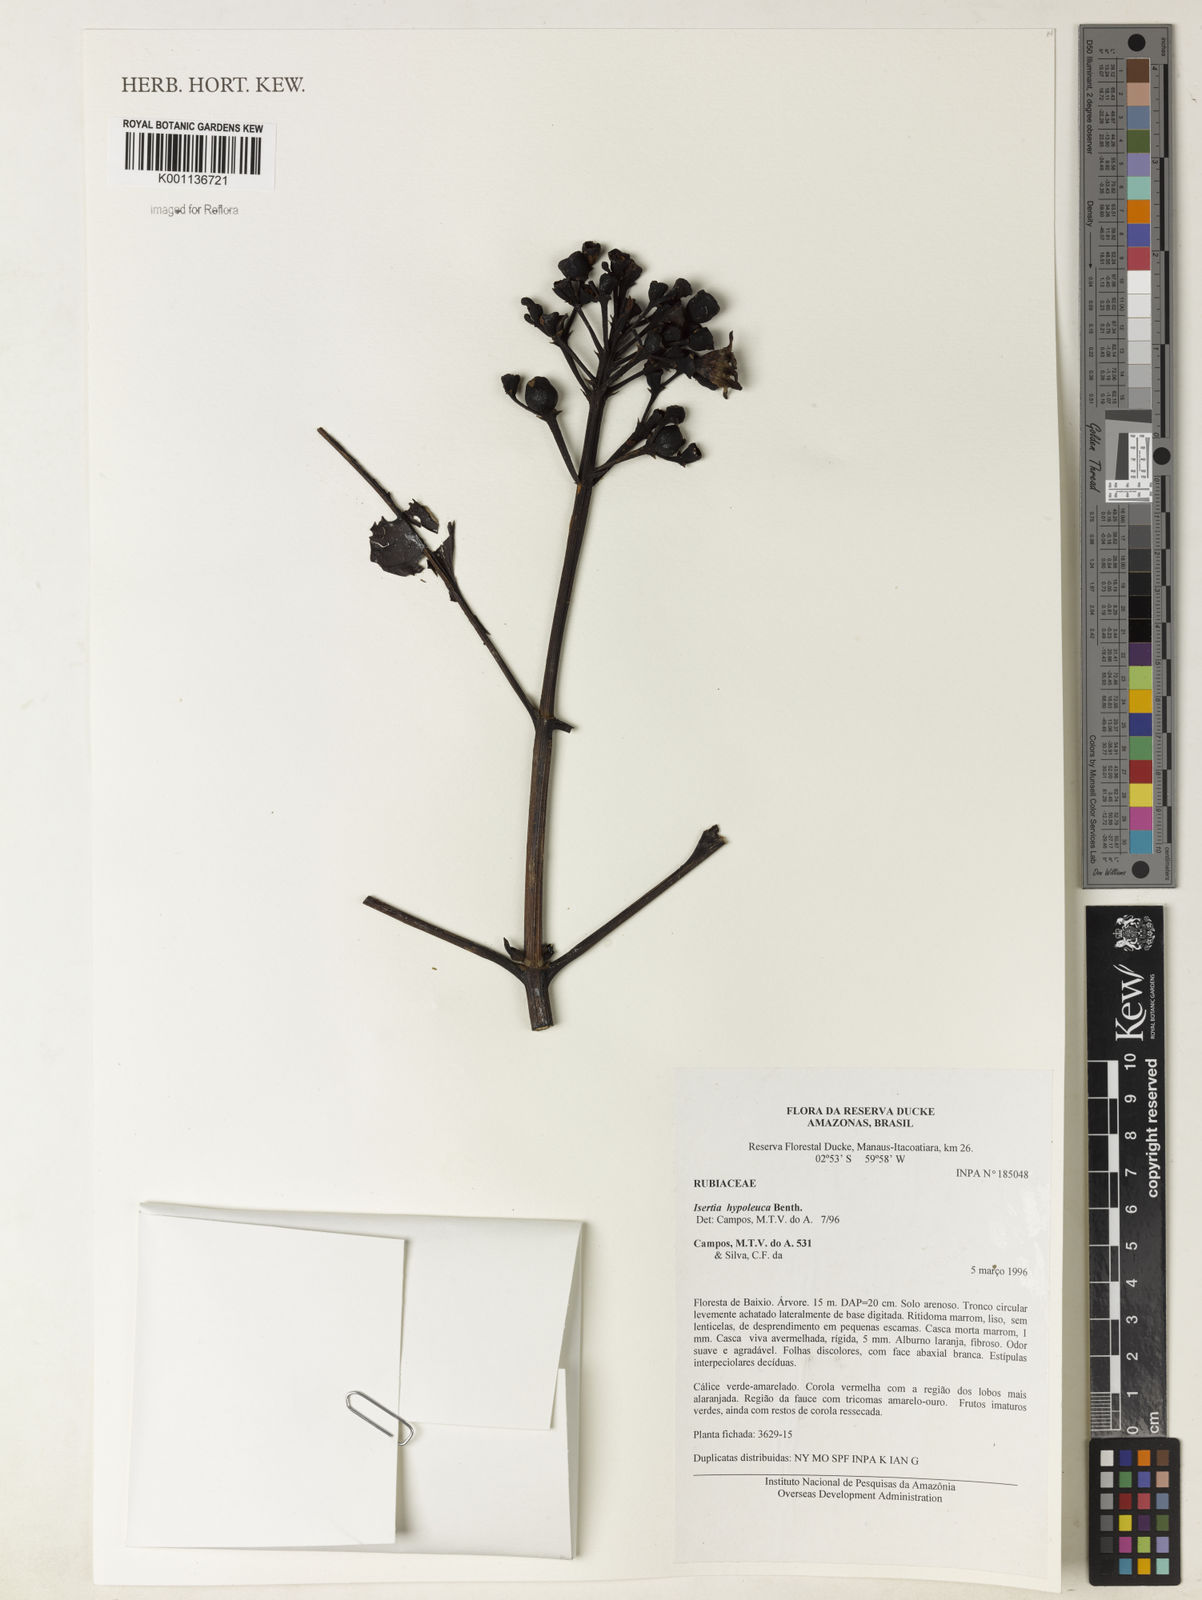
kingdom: Plantae
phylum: Tracheophyta
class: Magnoliopsida
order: Gentianales
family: Rubiaceae
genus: Isertia
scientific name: Isertia hypoleuca
